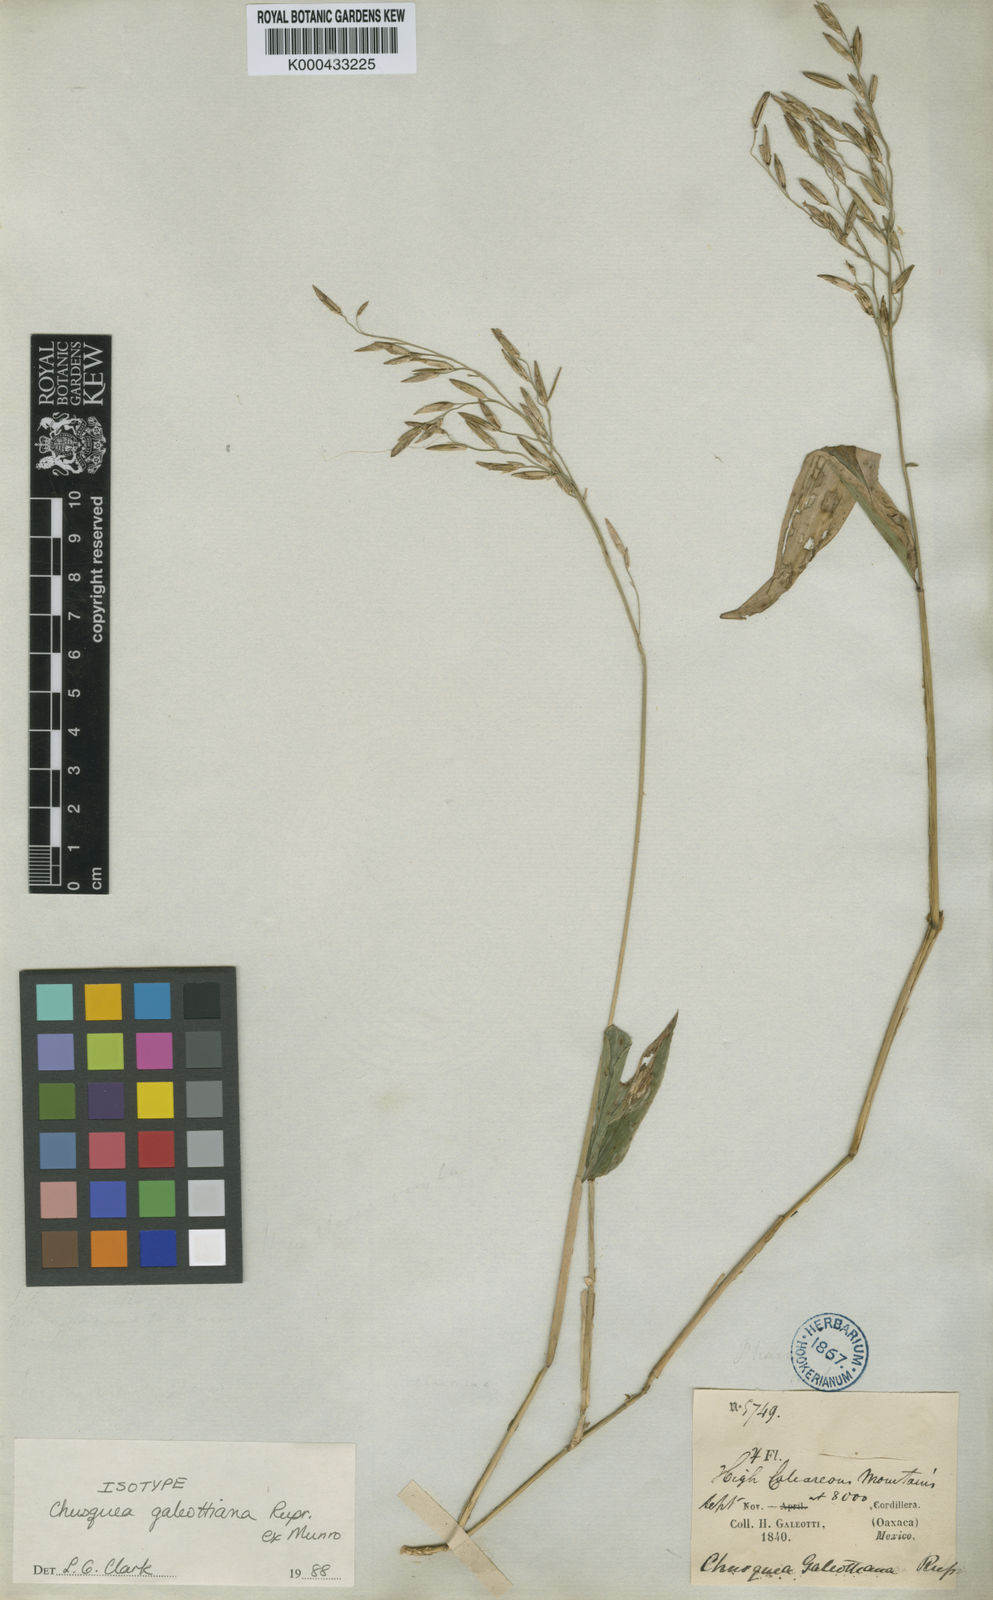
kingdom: Plantae
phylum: Tracheophyta
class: Liliopsida
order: Poales
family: Poaceae
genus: Chusquea
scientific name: Chusquea galeottiana
